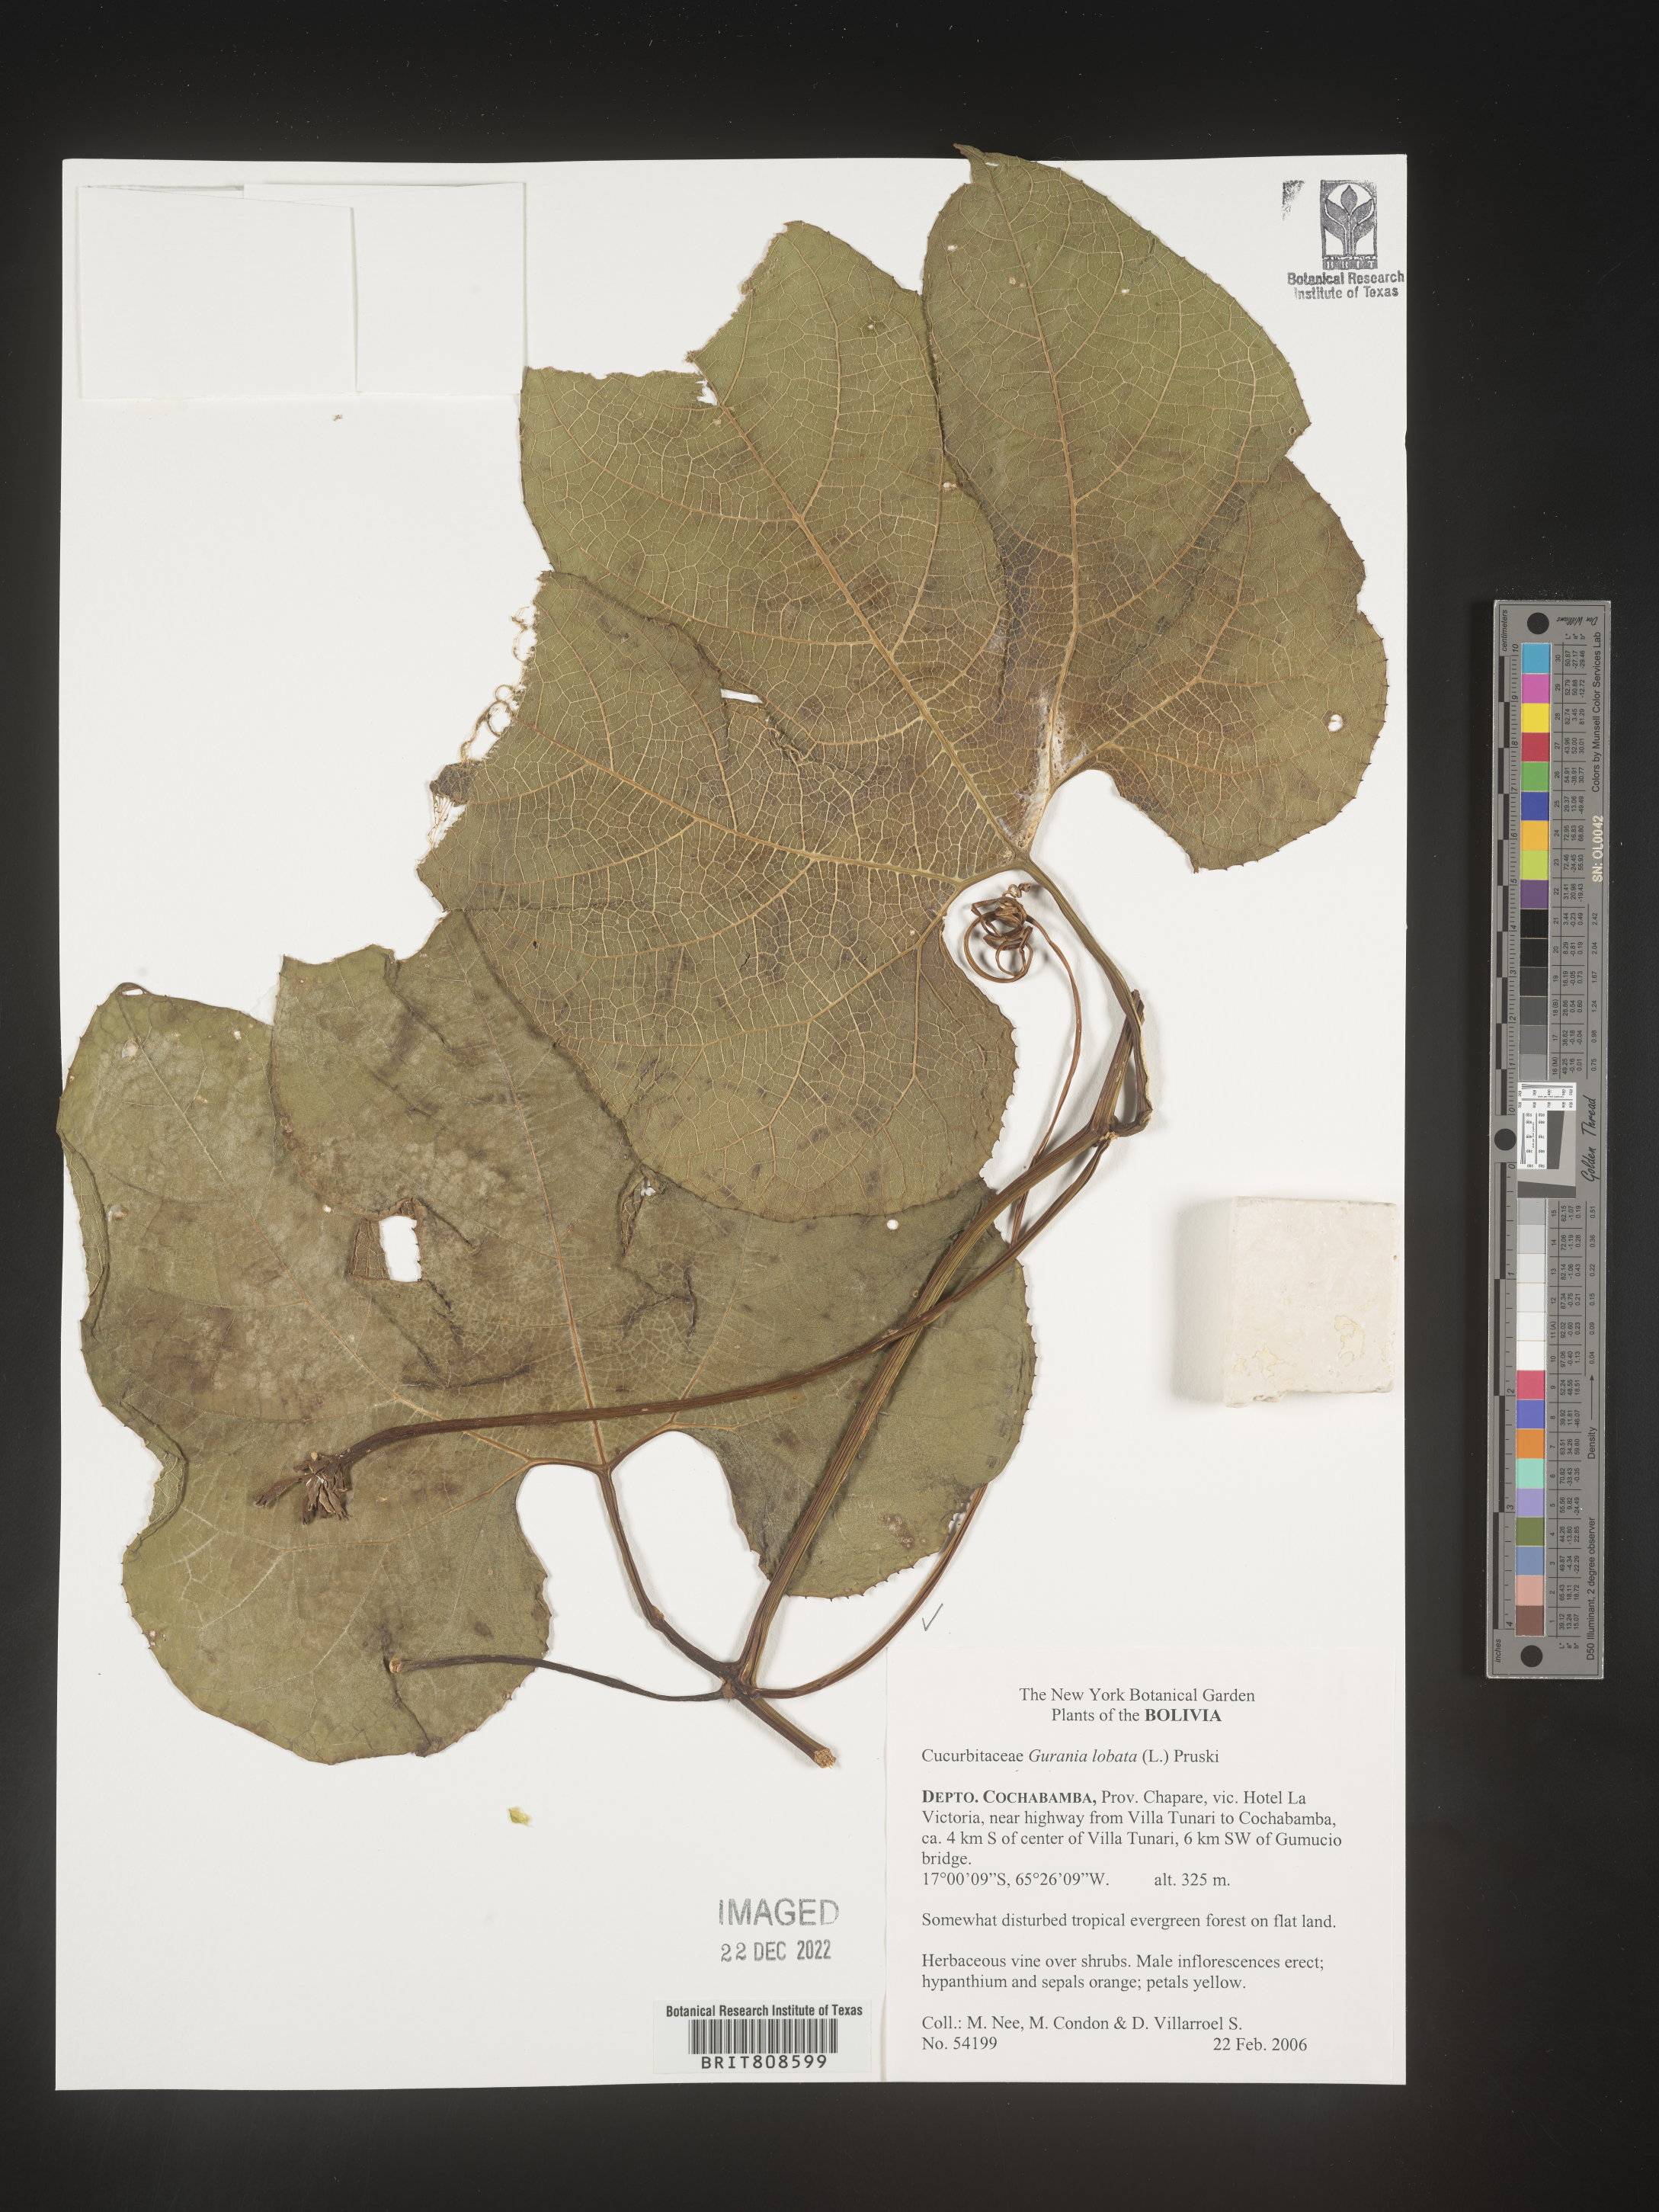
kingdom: Plantae
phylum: Tracheophyta
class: Magnoliopsida
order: Cucurbitales
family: Cucurbitaceae
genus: Gurania
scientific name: Gurania
